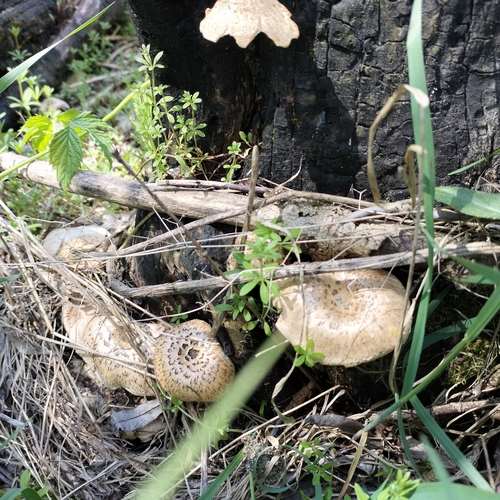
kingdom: Fungi
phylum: Basidiomycota
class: Agaricomycetes
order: Polyporales
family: Polyporaceae
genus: Lentinus
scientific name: Lentinus tigrinus
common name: Tiger sawgill
